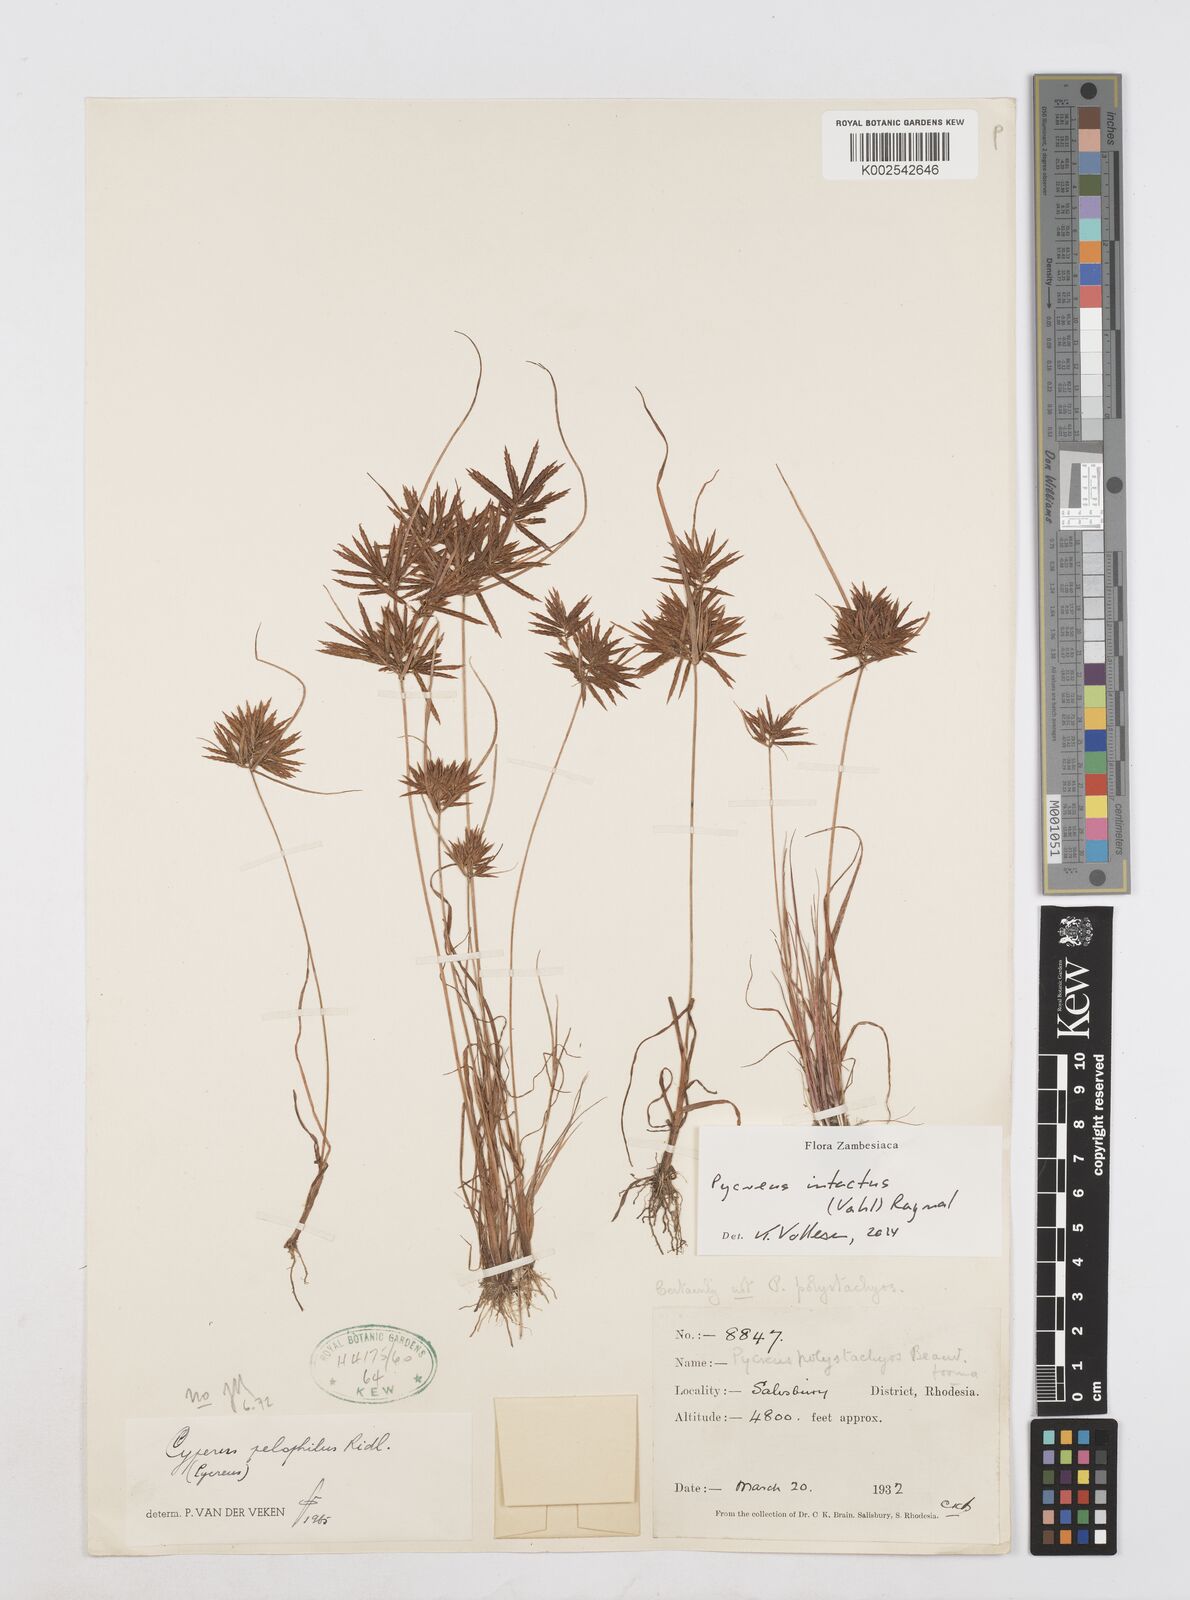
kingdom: Plantae
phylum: Tracheophyta
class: Liliopsida
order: Poales
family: Cyperaceae
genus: Cyperus
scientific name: Cyperus intactus
